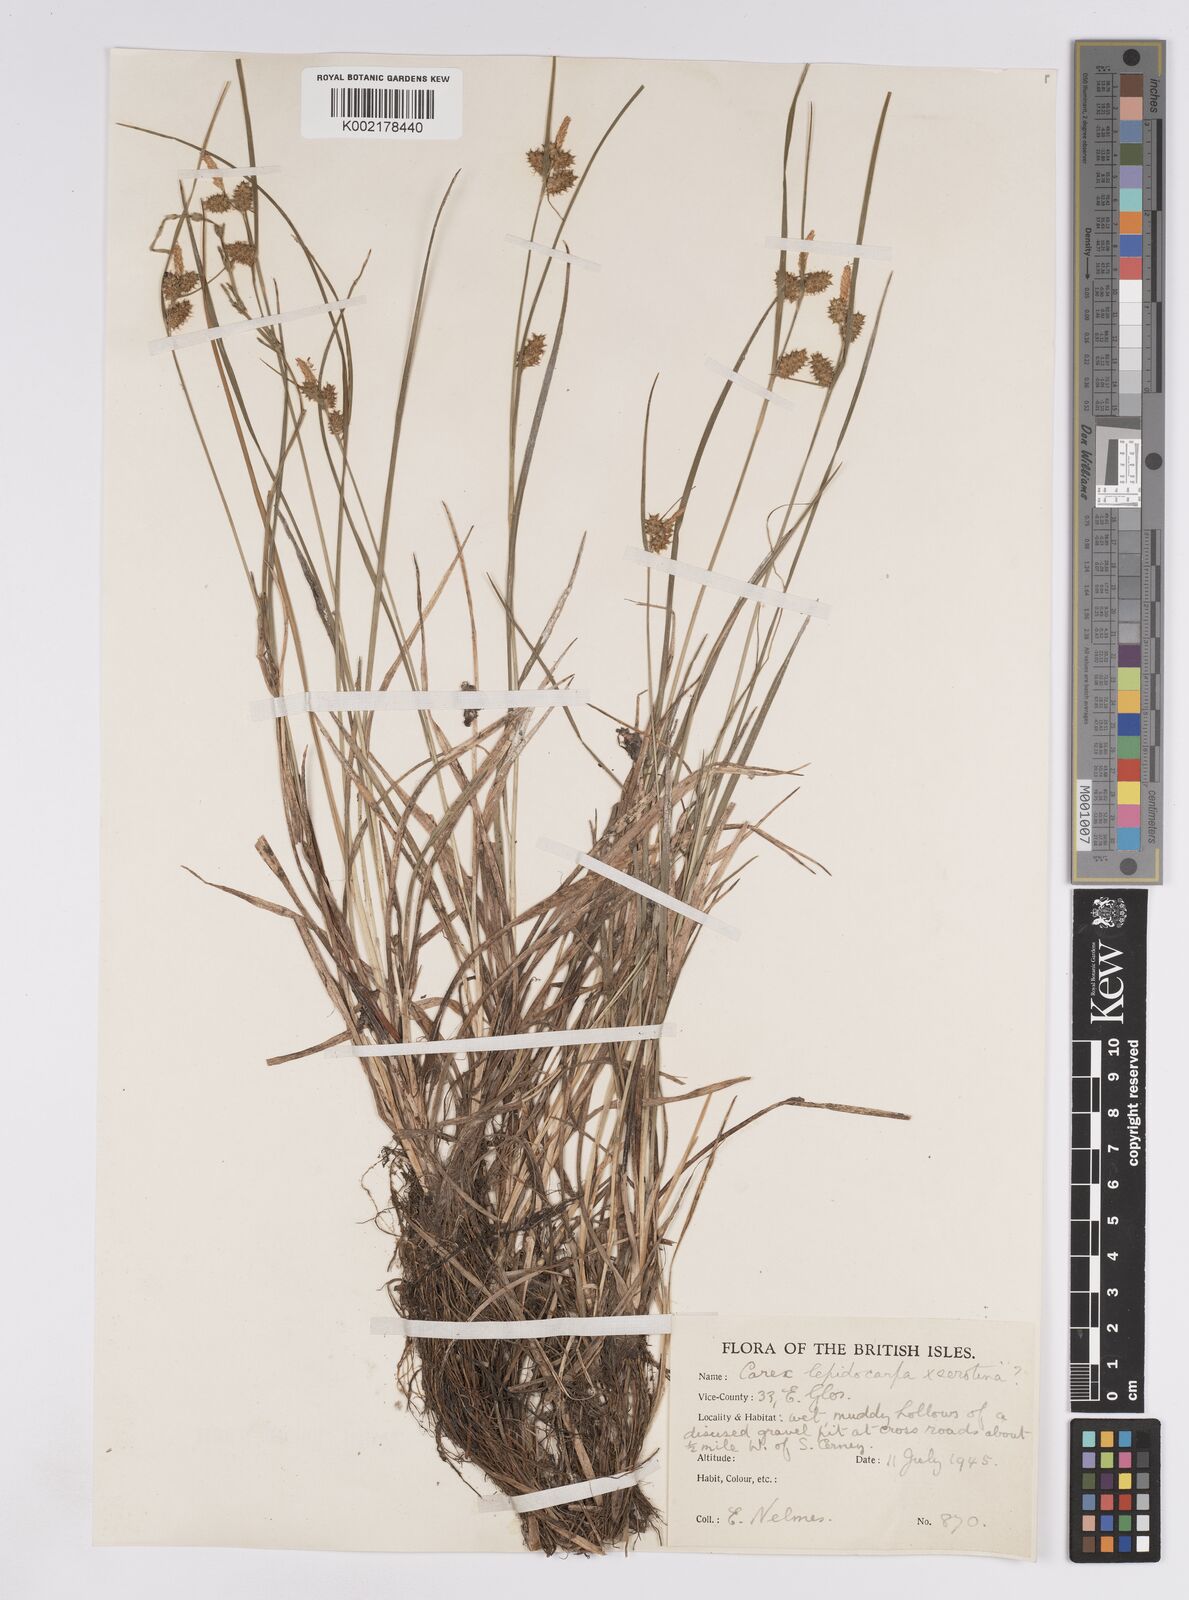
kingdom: Plantae
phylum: Tracheophyta
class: Liliopsida
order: Poales
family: Cyperaceae
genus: Carex
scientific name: Carex lepidocarpa
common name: Long-stalked yellow-sedge
